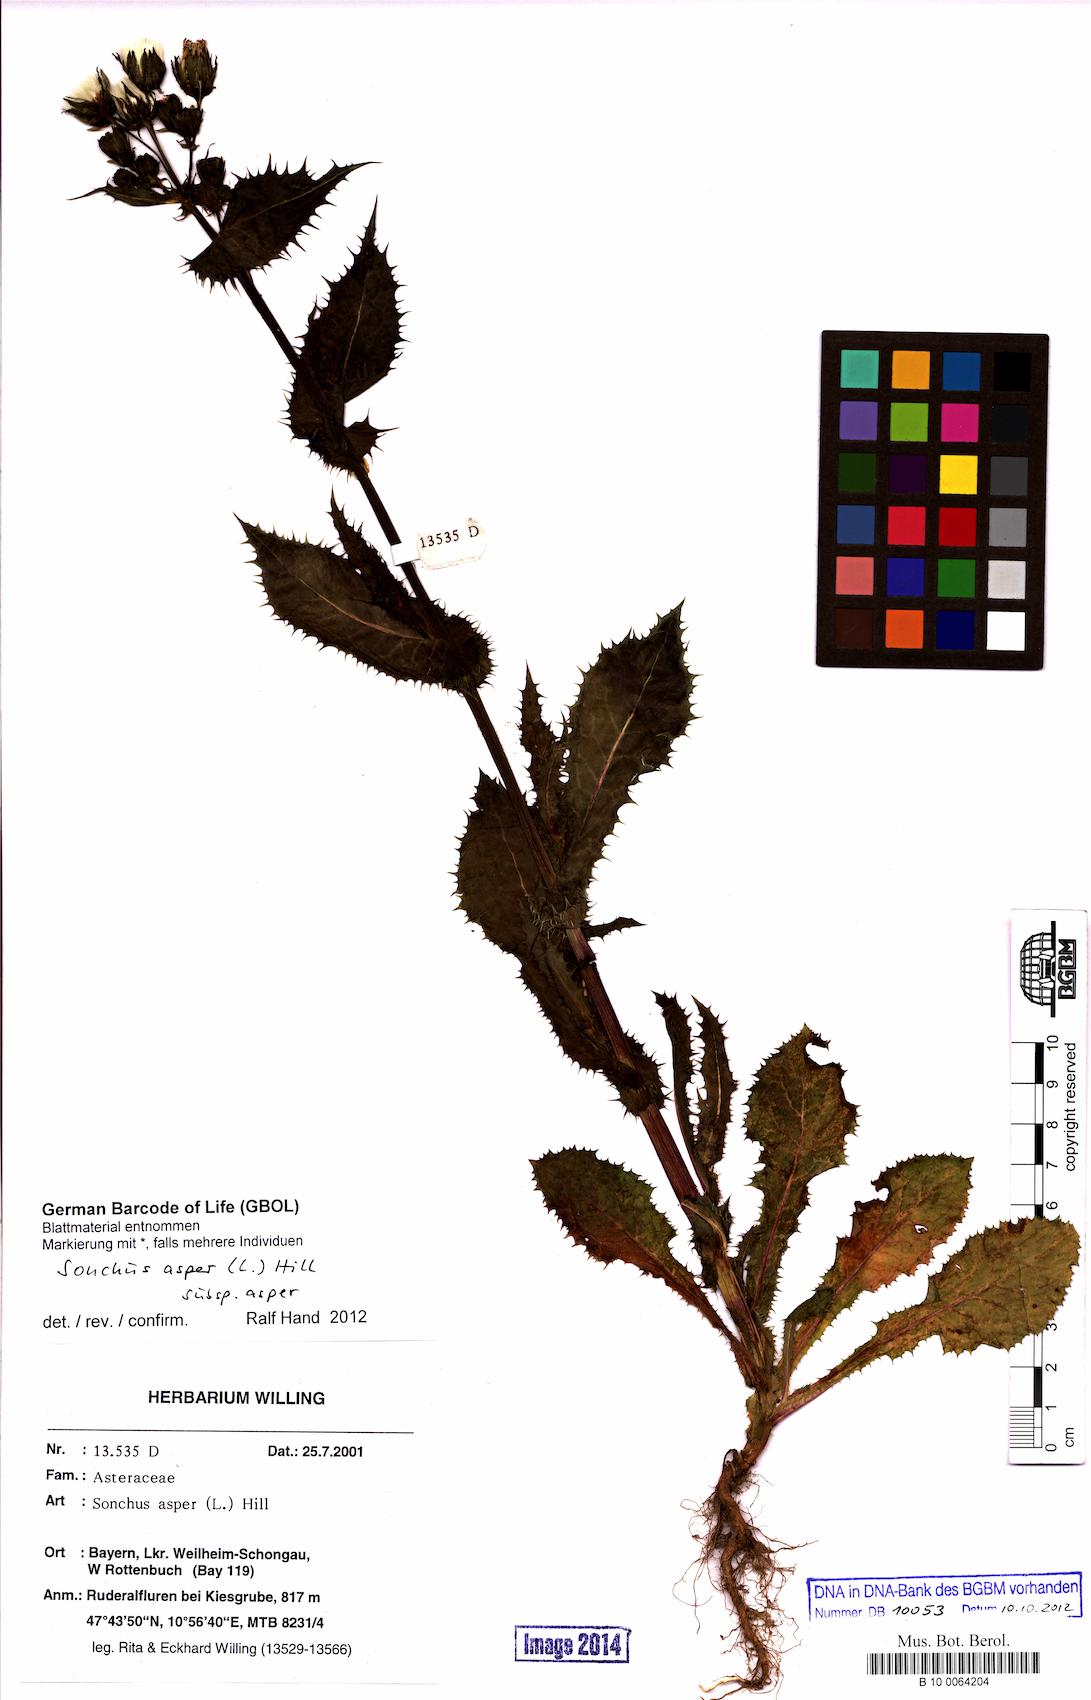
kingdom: Plantae
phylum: Tracheophyta
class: Magnoliopsida
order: Asterales
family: Asteraceae
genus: Sonchus
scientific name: Sonchus asper
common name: Prickly sow-thistle
